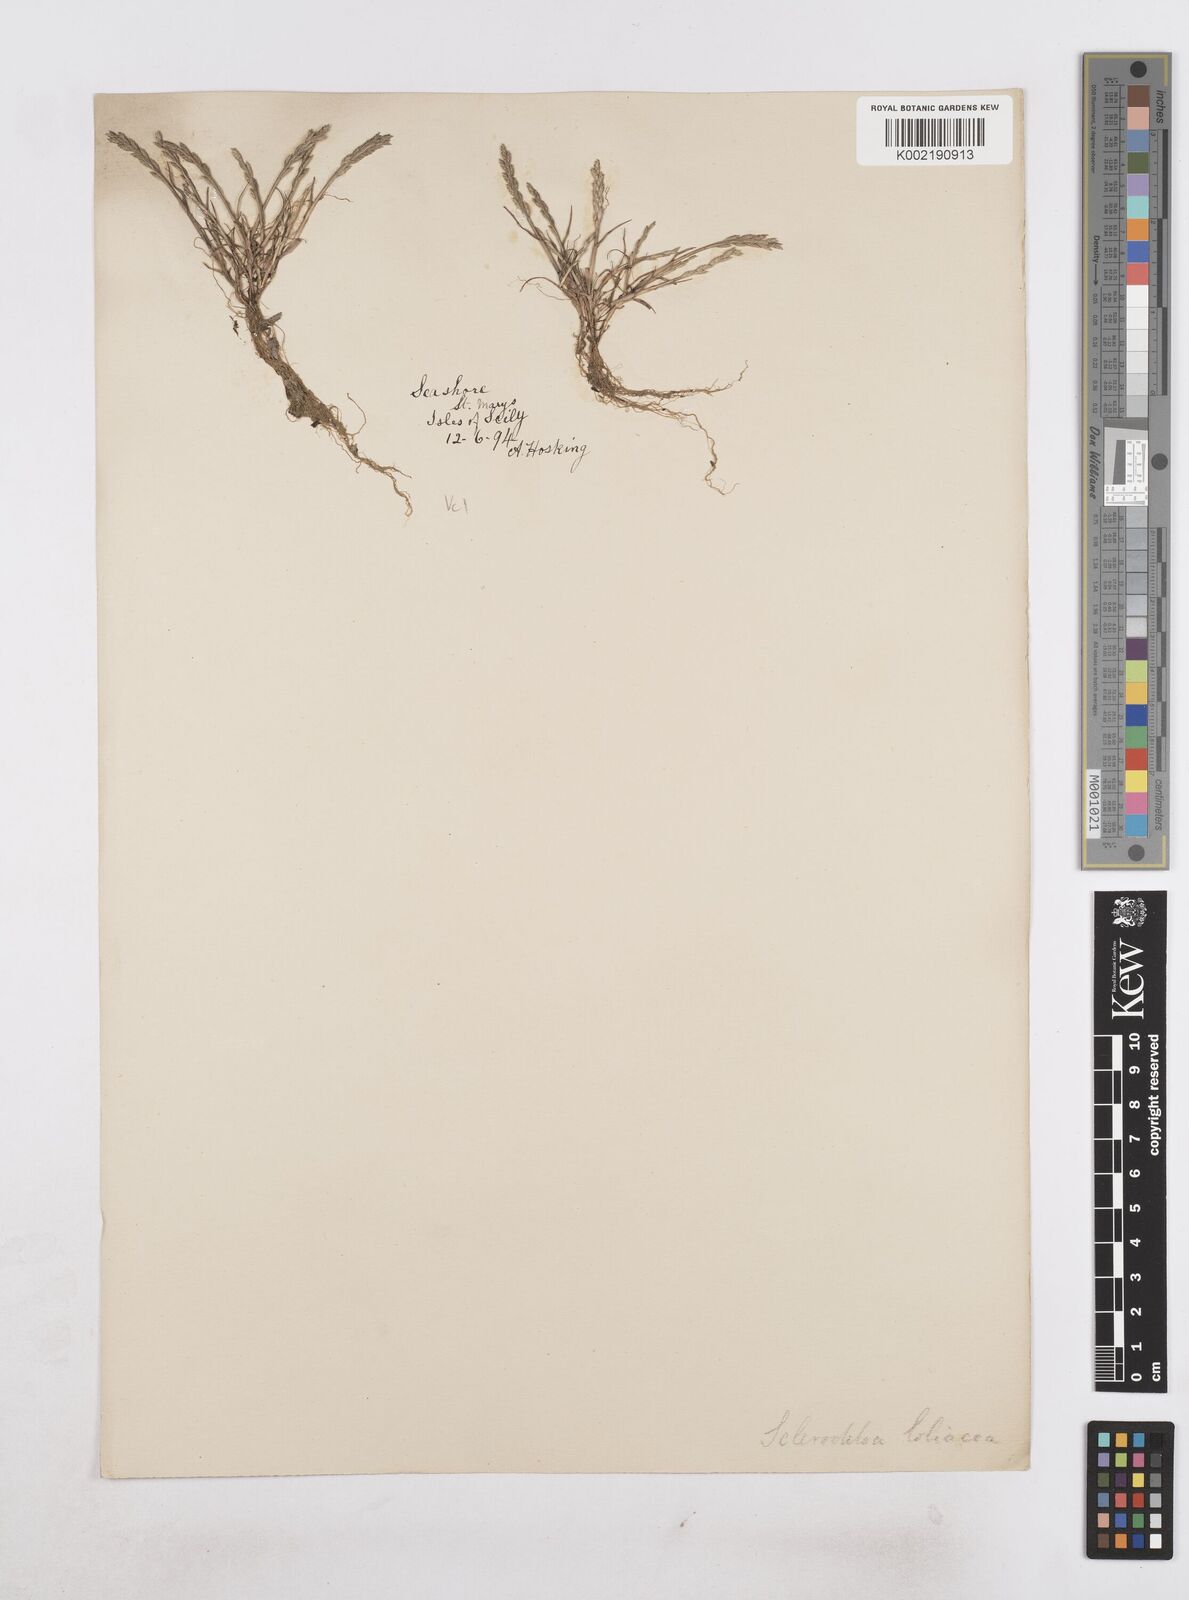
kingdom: Plantae
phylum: Tracheophyta
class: Liliopsida
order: Poales
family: Poaceae
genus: Catapodium
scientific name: Catapodium marinum
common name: Sea fern-grass
